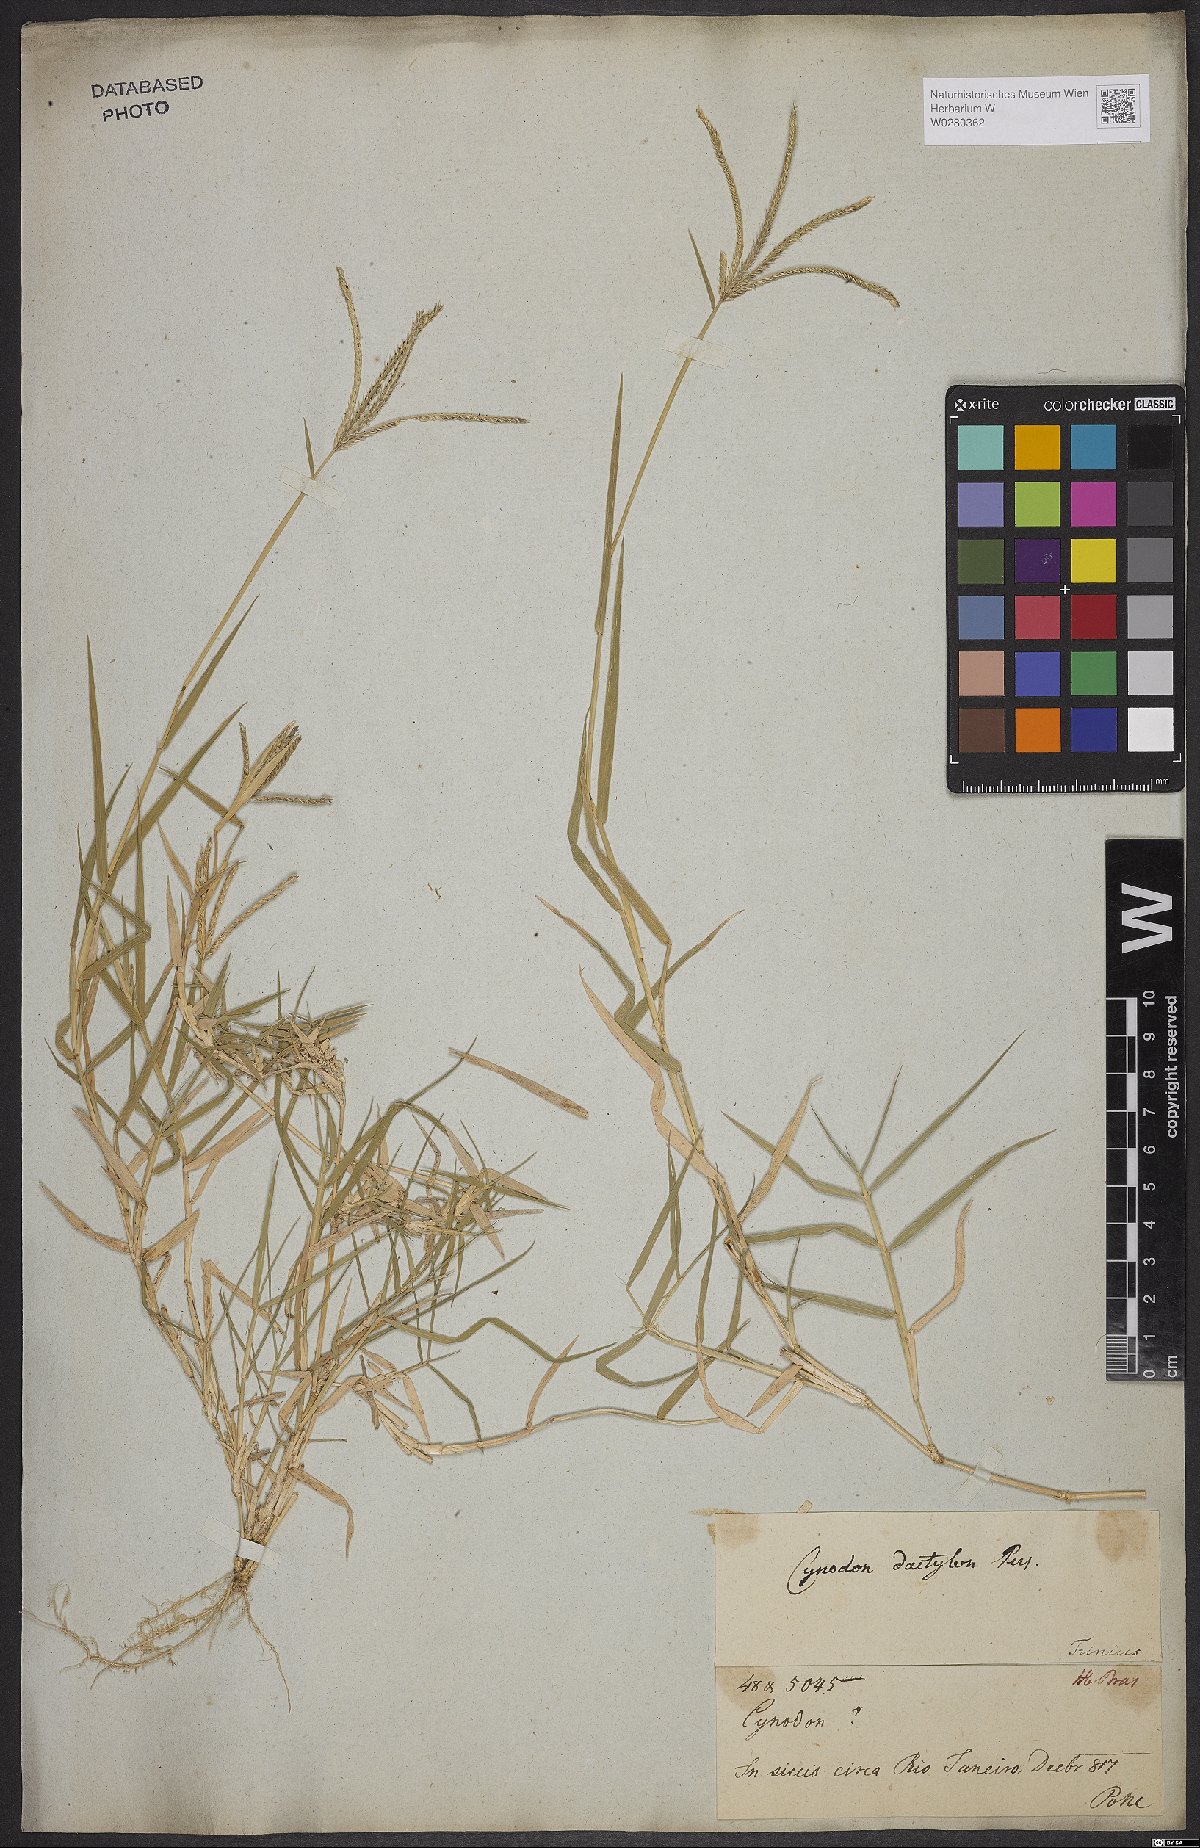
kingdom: Plantae
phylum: Tracheophyta
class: Liliopsida
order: Poales
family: Poaceae
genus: Cynodon
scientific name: Cynodon dactylon
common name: Bermuda grass
